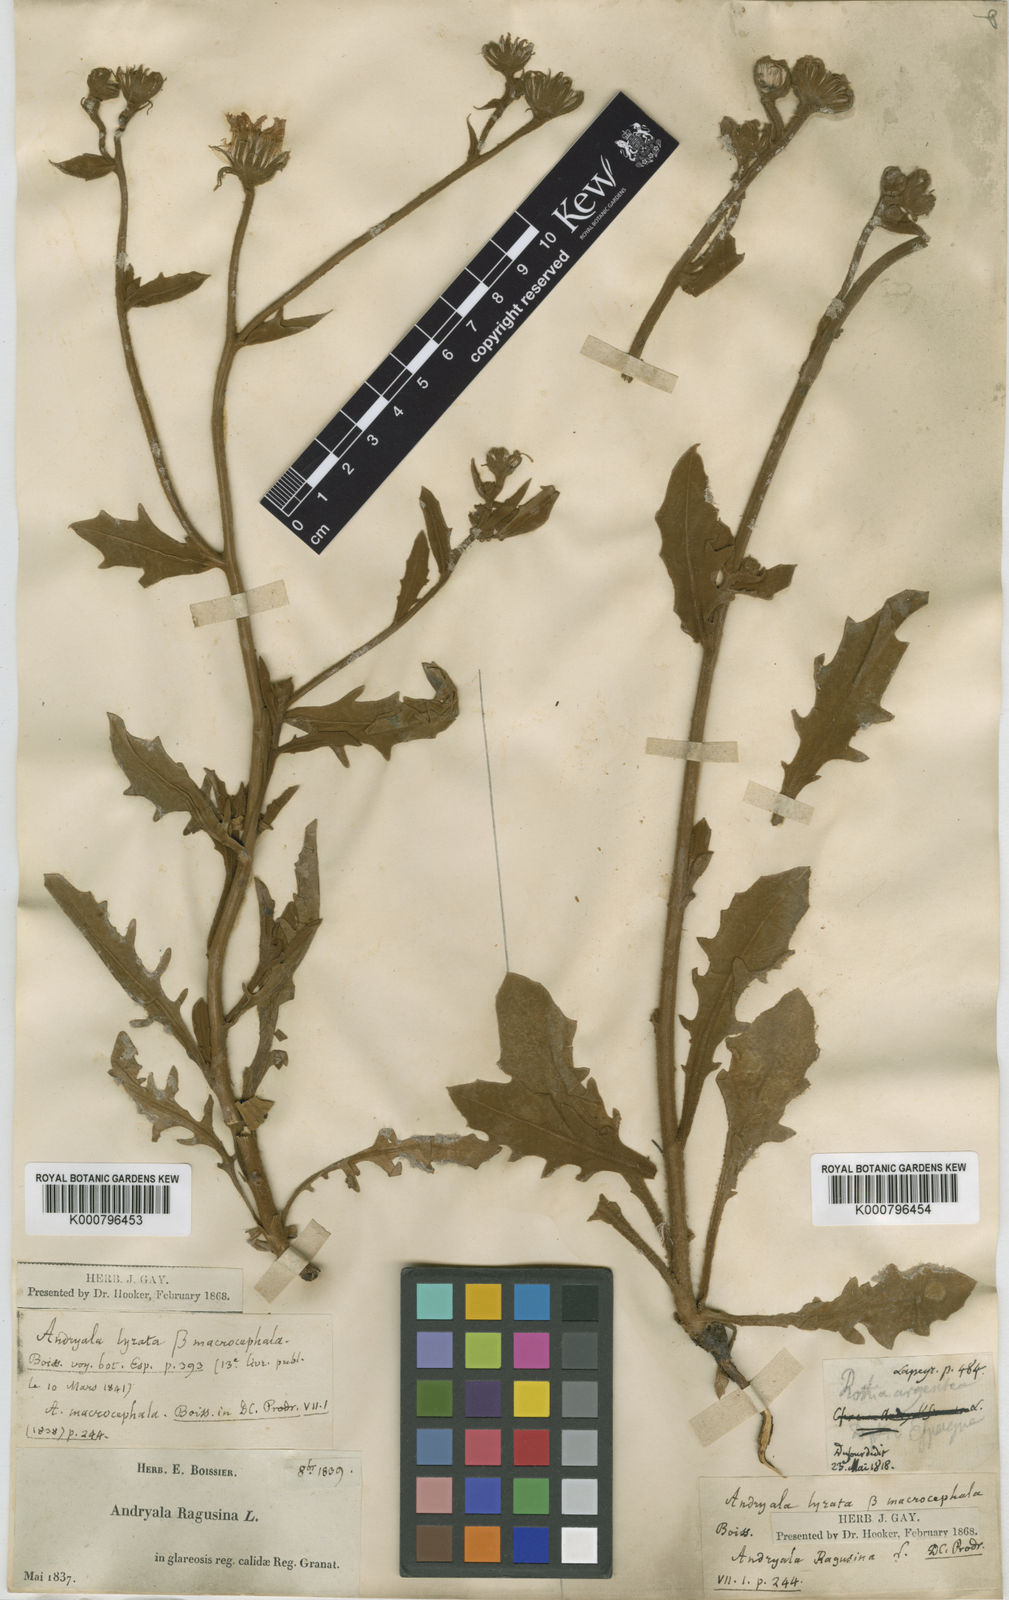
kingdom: Plantae
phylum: Tracheophyta
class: Magnoliopsida
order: Asterales
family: Asteraceae
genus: Andryala
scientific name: Andryala ragusina
